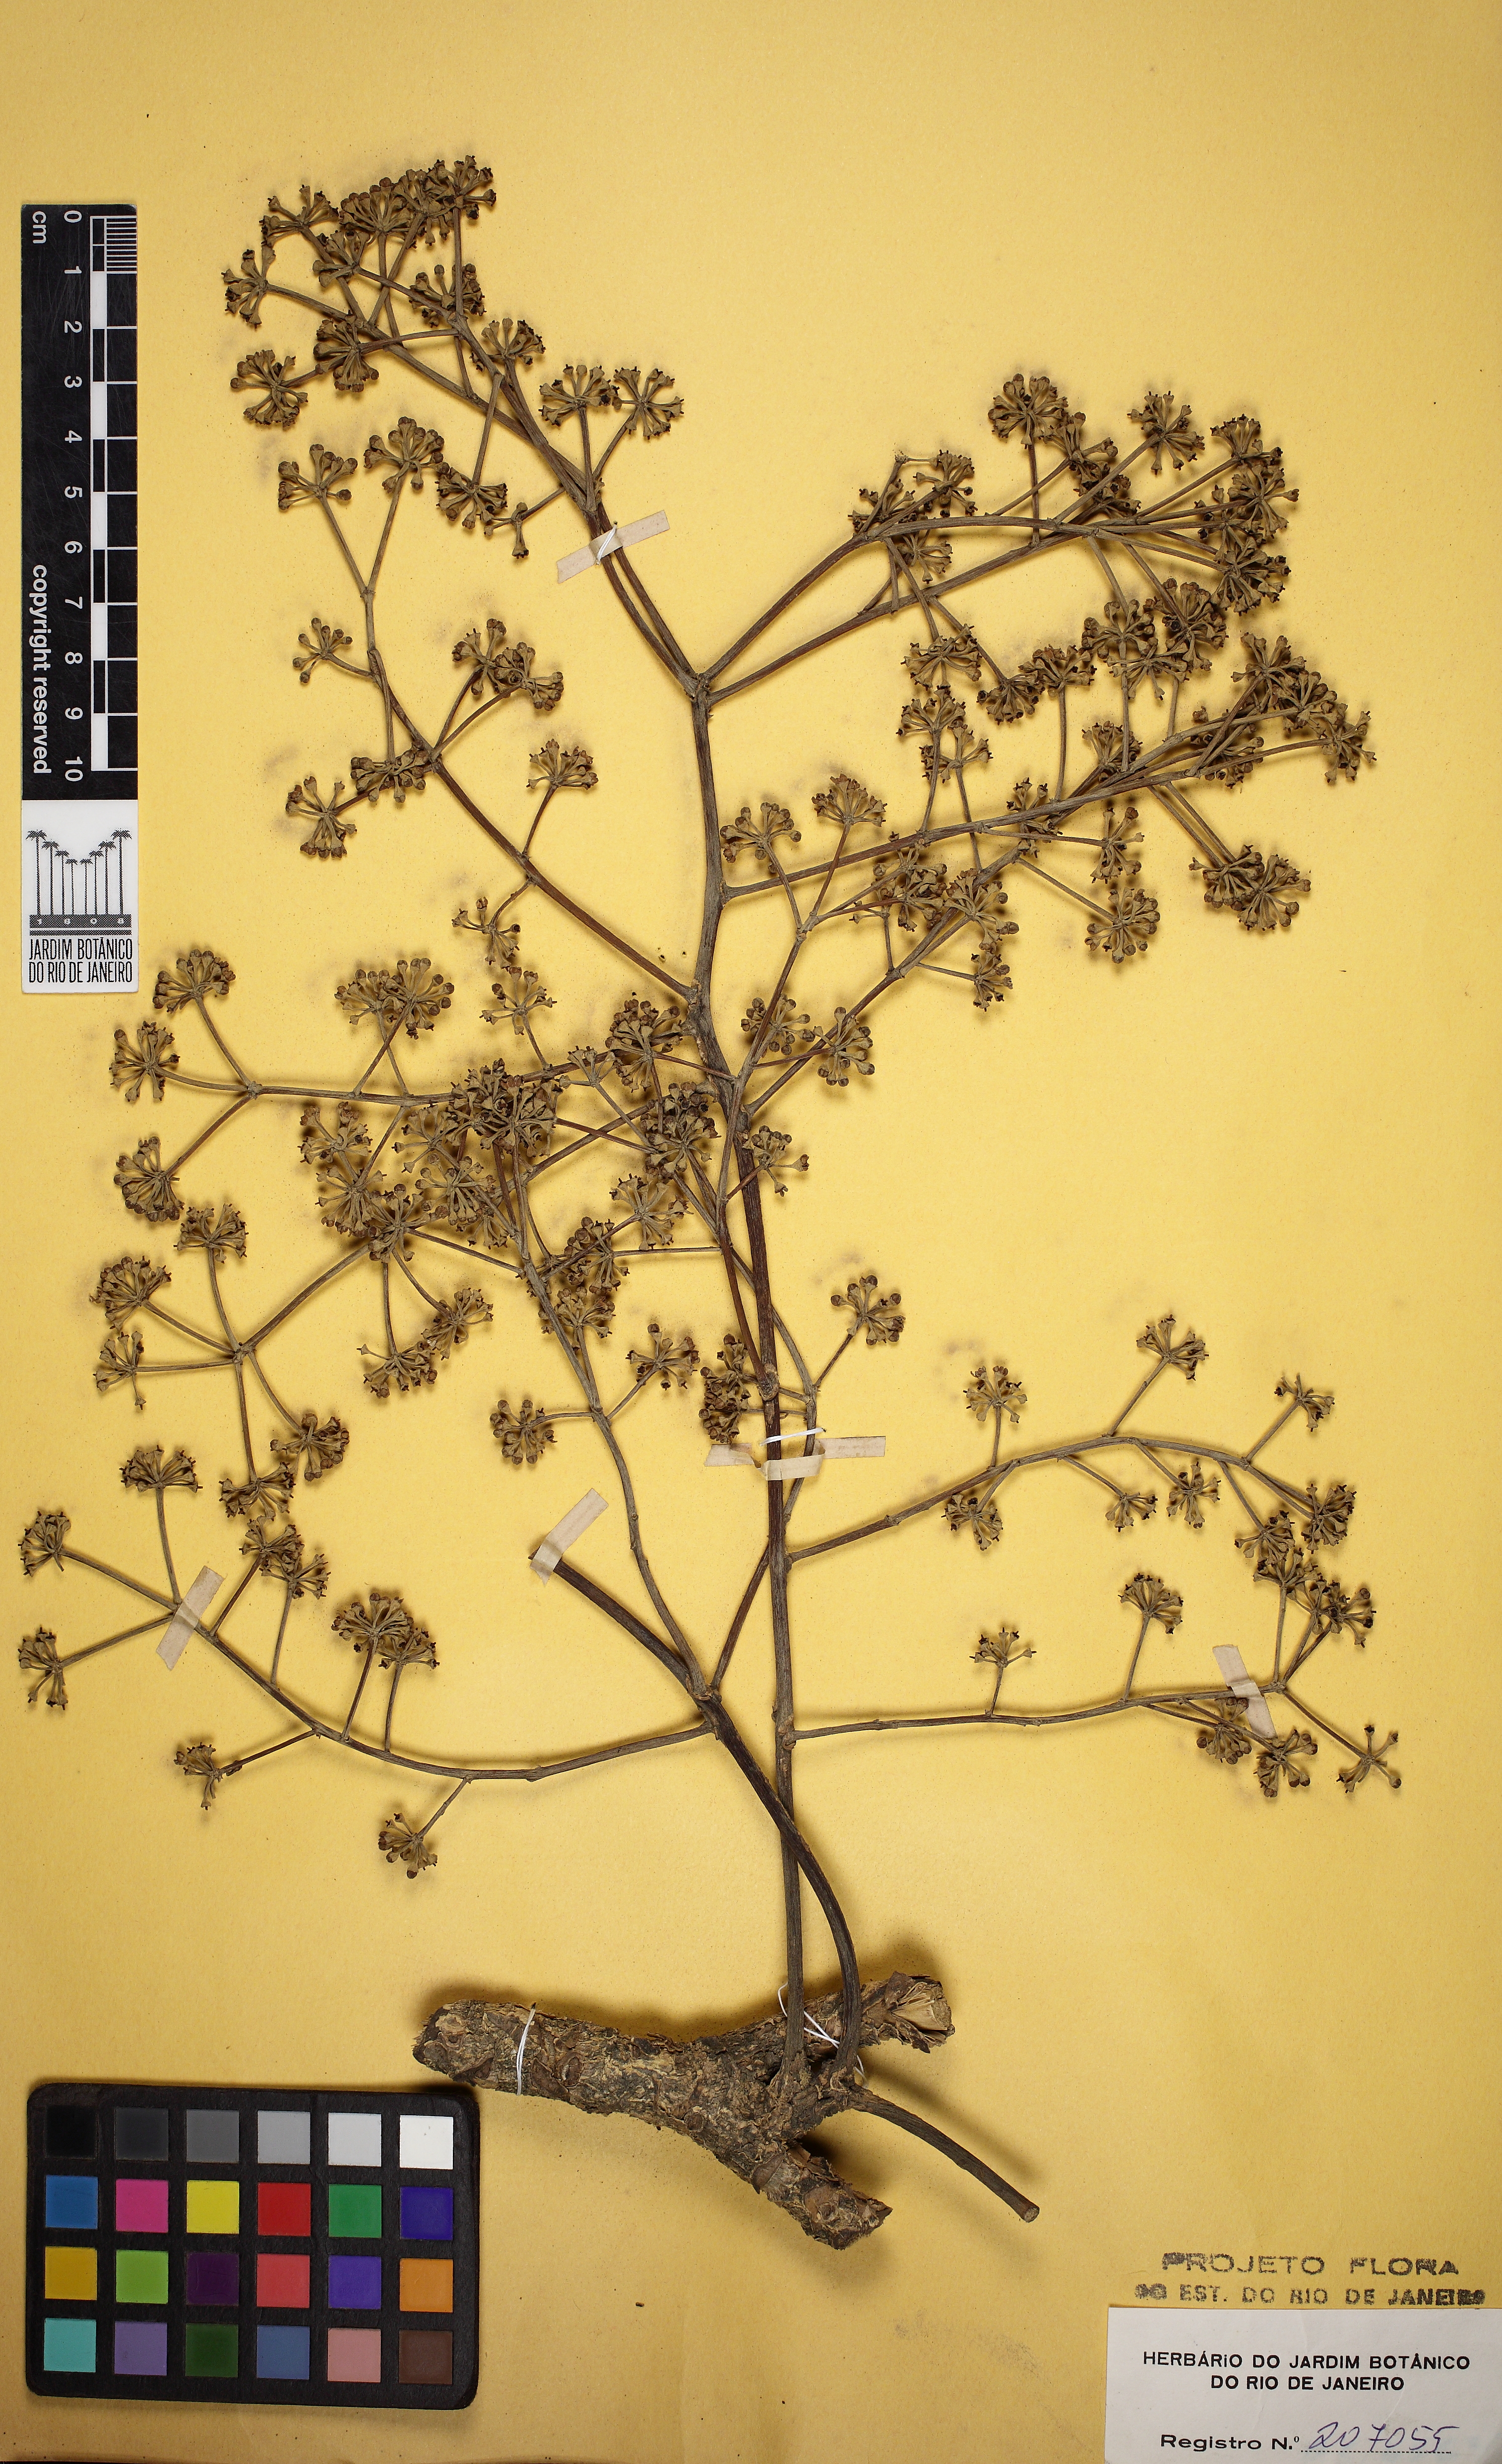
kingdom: Plantae
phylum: Tracheophyta
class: Magnoliopsida
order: Apiales
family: Araliaceae
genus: Didymopanax
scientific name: Didymopanax angustissimus
